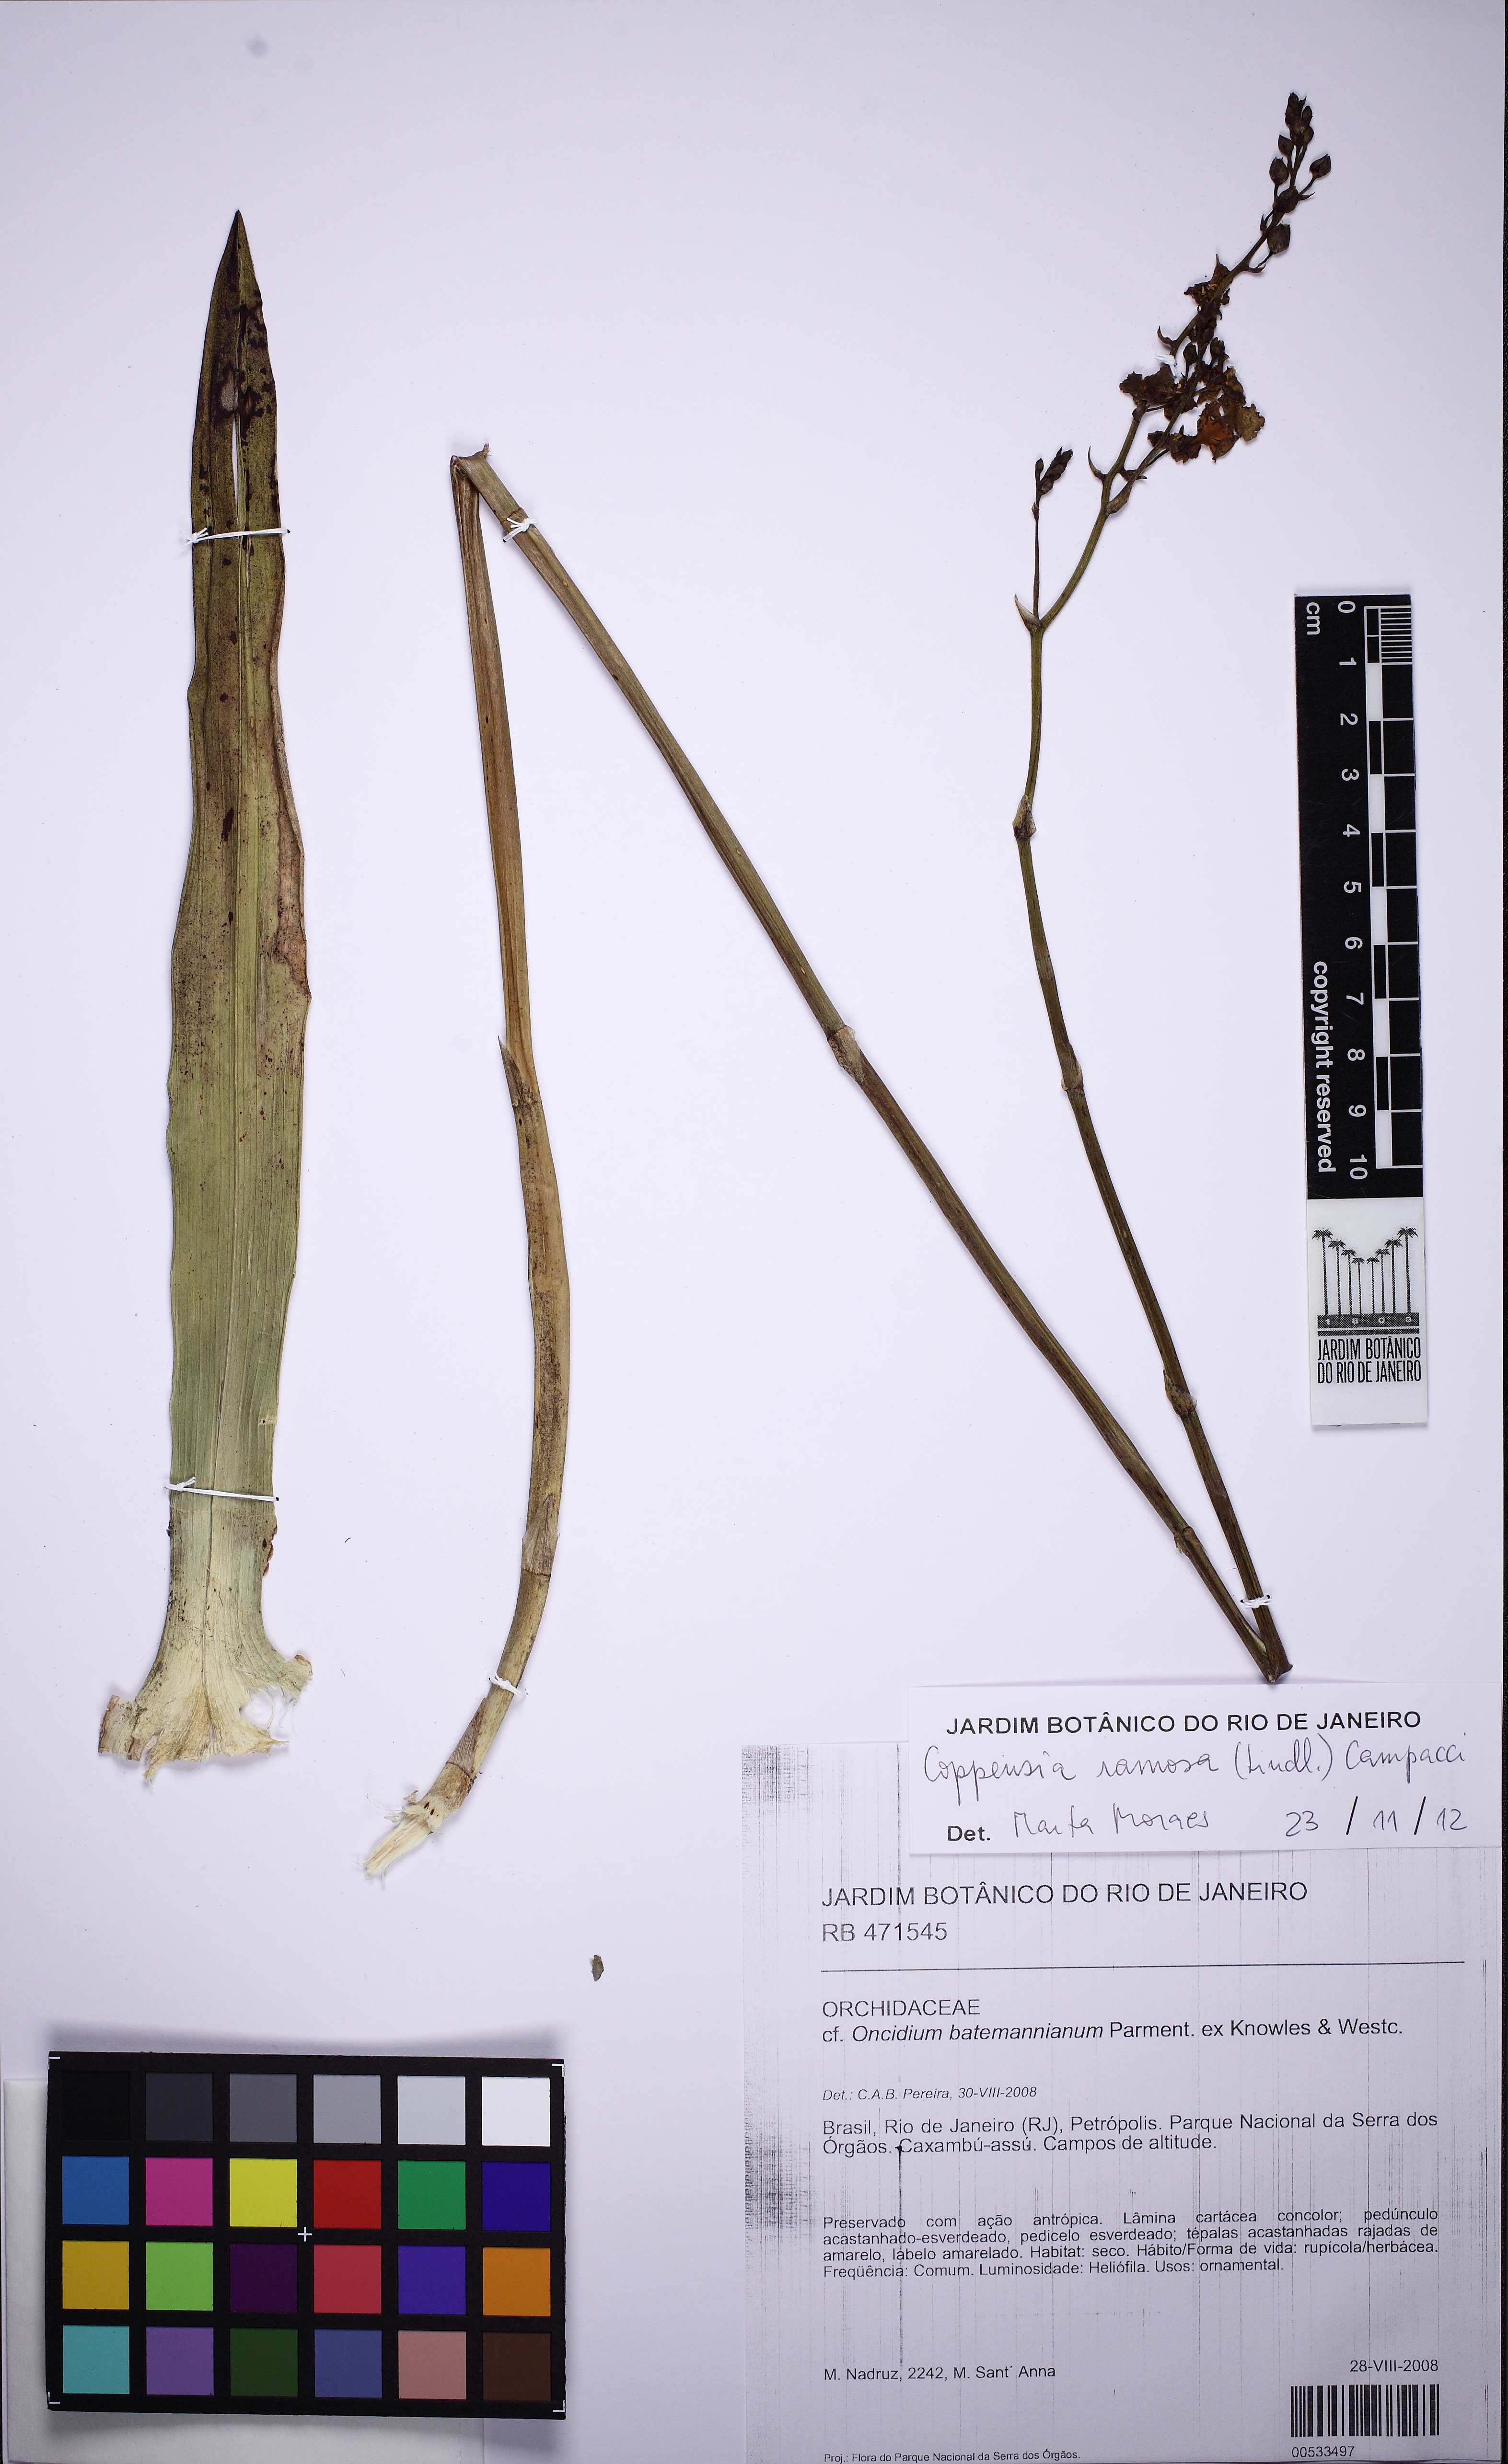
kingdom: Plantae
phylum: Tracheophyta
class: Liliopsida
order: Asparagales
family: Orchidaceae
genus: Gomesa
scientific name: Gomesa ramosa
